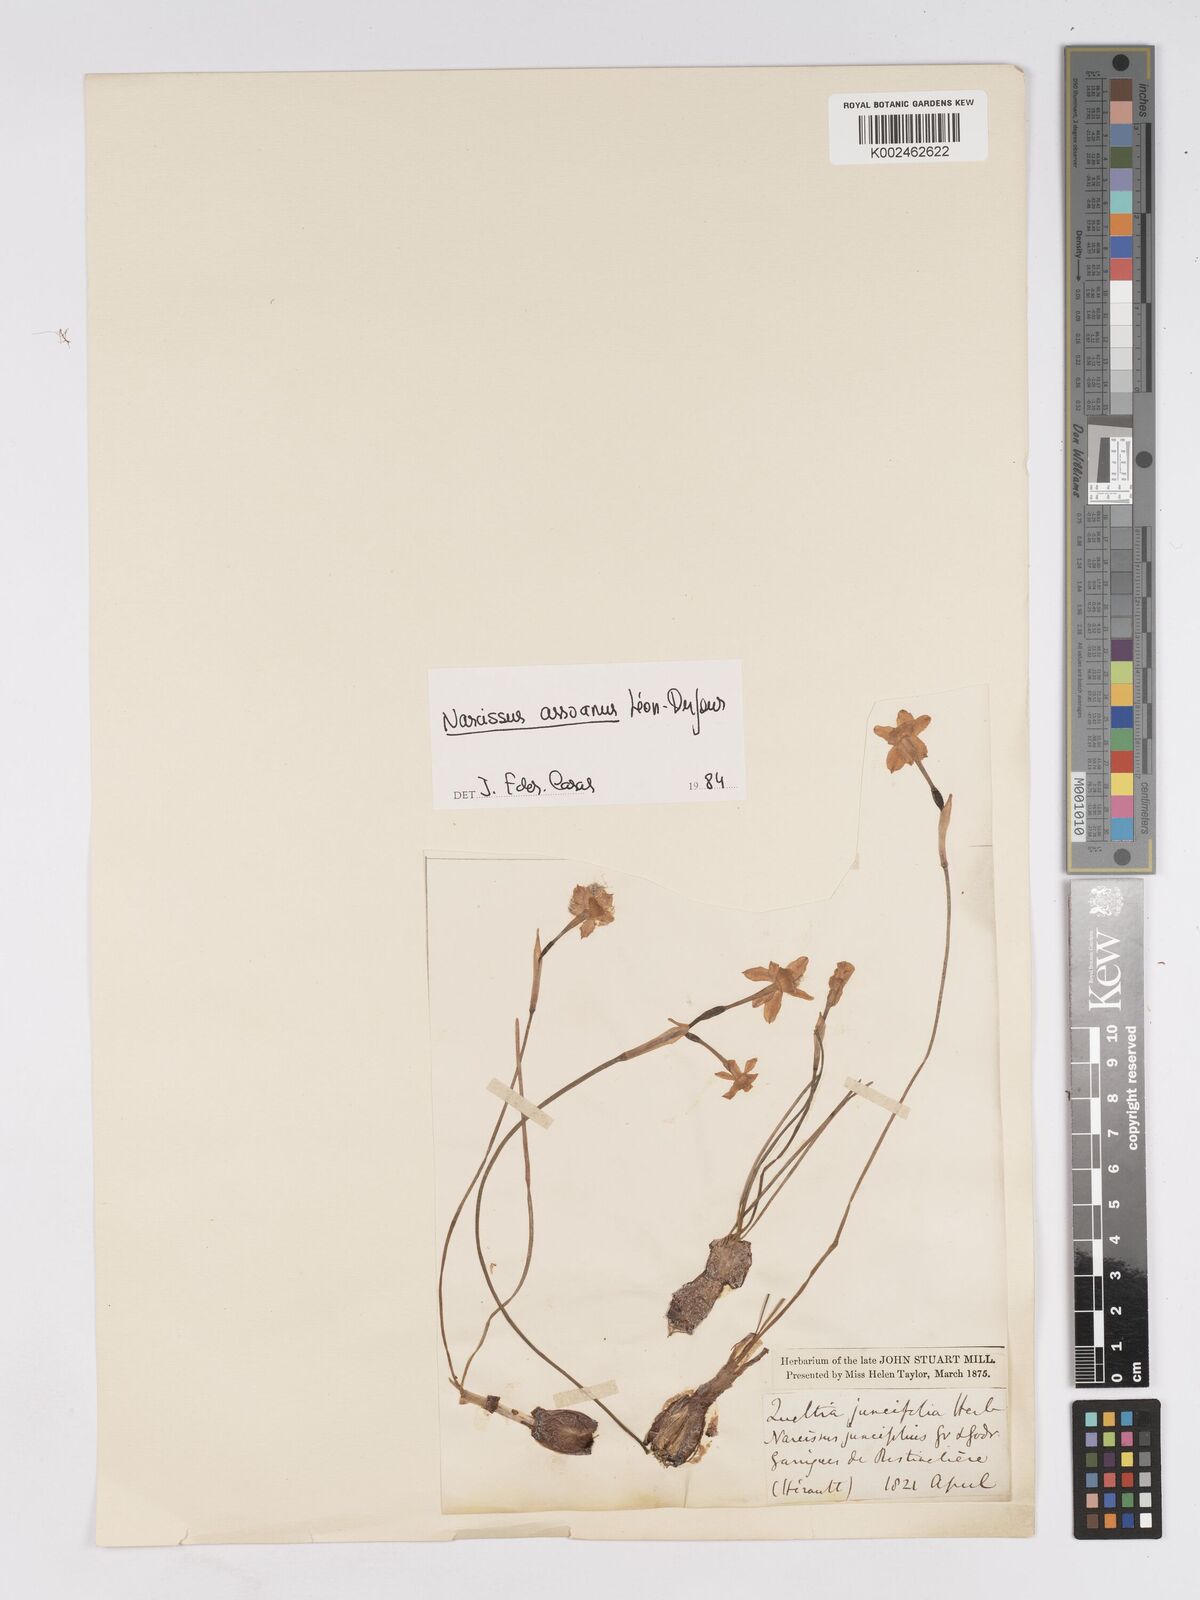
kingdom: Plantae
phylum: Tracheophyta
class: Liliopsida
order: Asparagales
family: Amaryllidaceae
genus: Narcissus
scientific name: Narcissus assoanus
